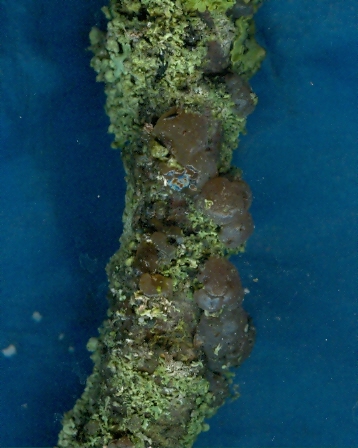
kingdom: Fungi
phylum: Basidiomycota
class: Agaricomycetes
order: Auriculariales
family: Hyaloriaceae
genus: Myxarium
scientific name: Myxarium
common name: bævretop
